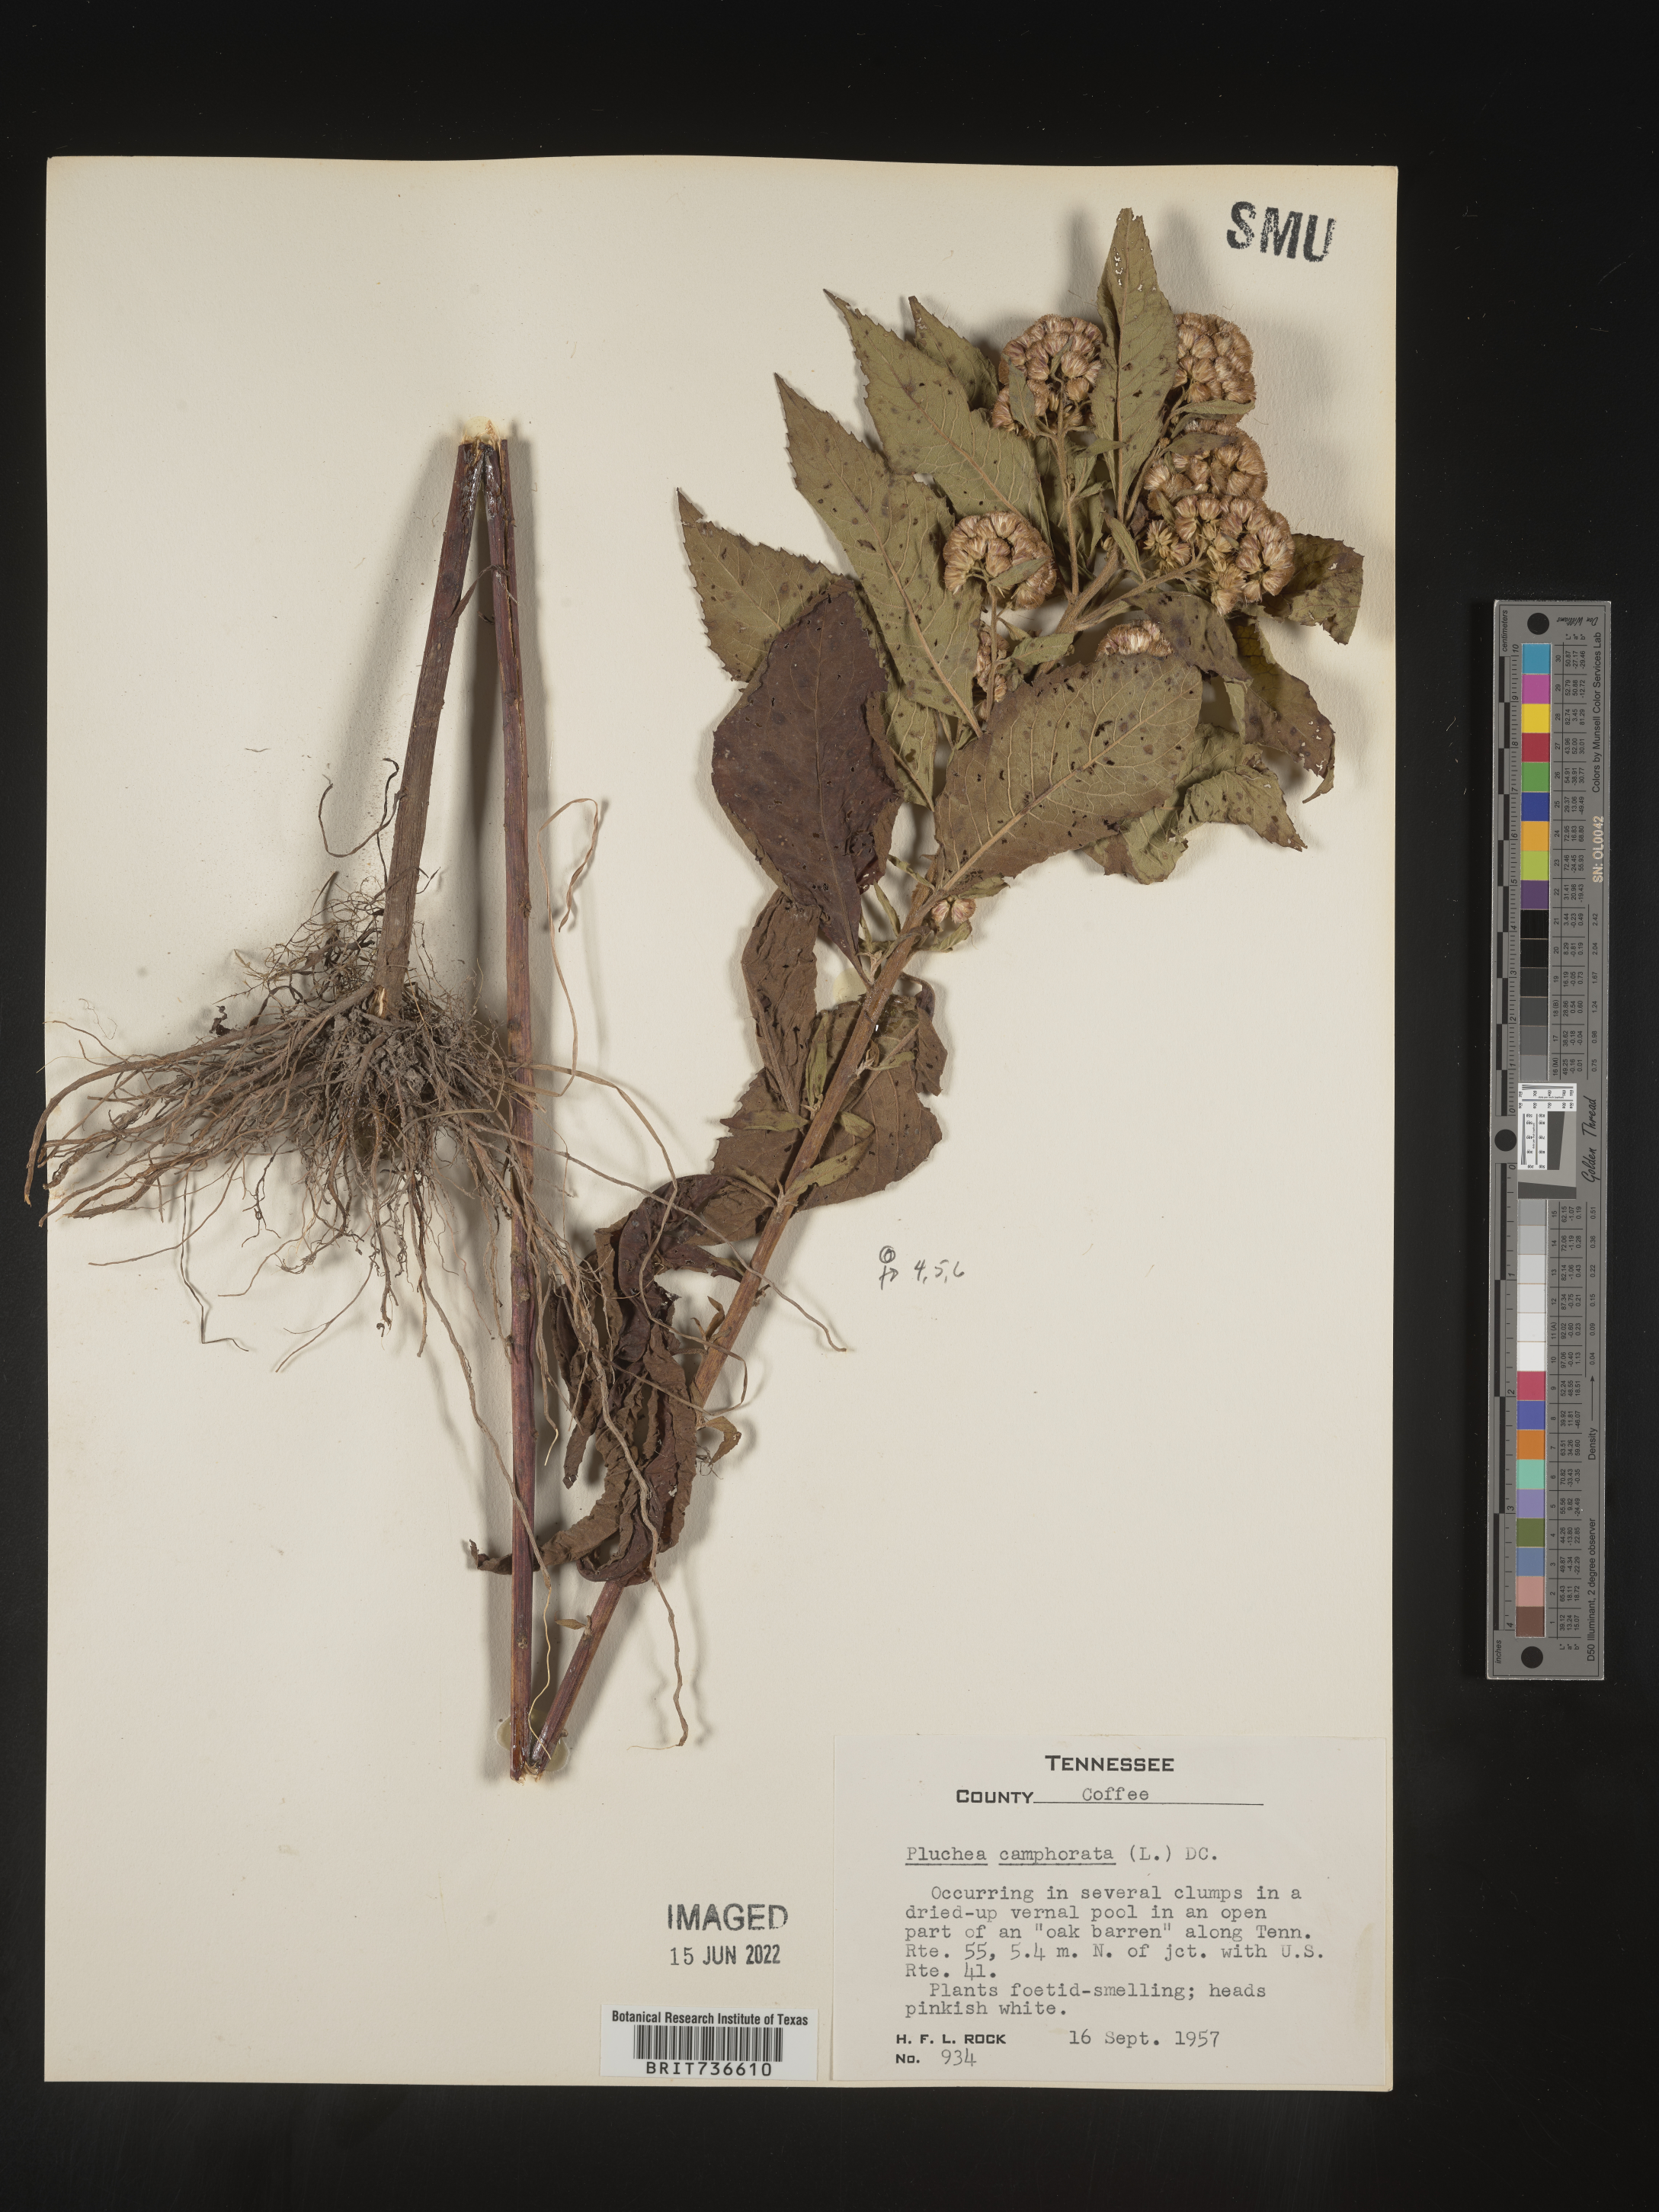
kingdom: Plantae
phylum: Tracheophyta
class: Magnoliopsida
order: Asterales
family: Asteraceae
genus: Pluchea
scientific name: Pluchea camphorata
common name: Camphor pluchea
